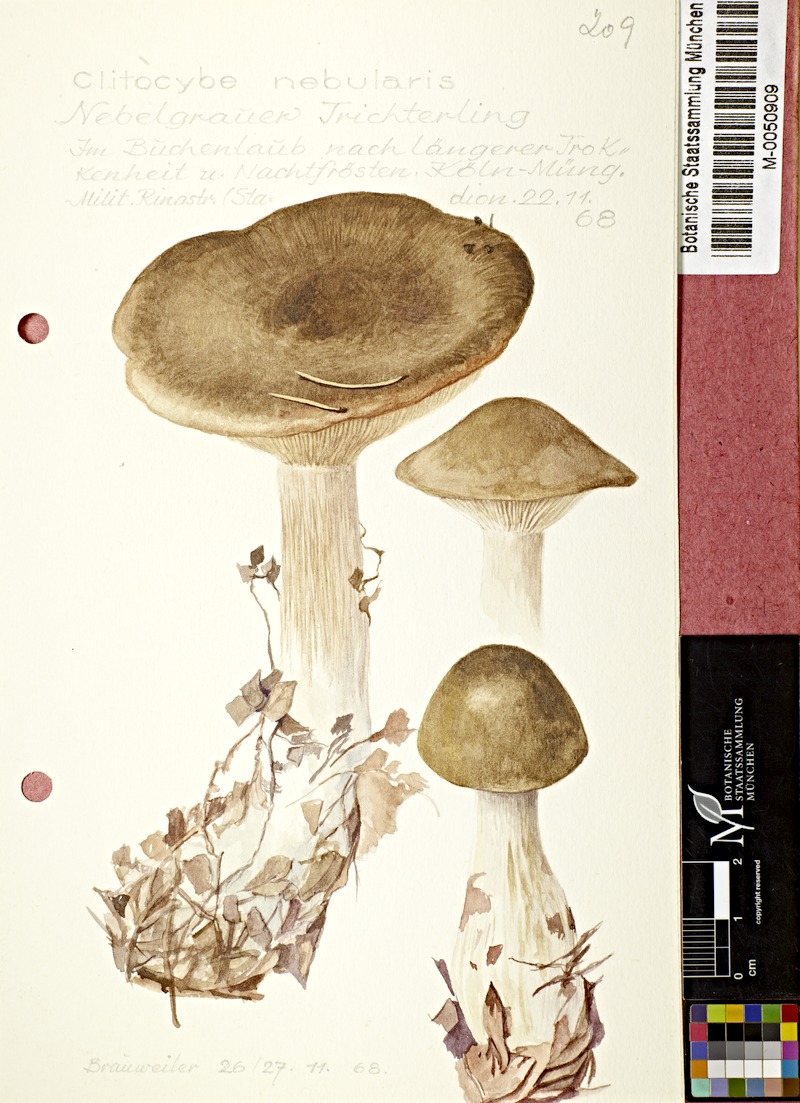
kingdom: Fungi
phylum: Basidiomycota
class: Agaricomycetes
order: Agaricales
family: Tricholomataceae
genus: Clitocybe
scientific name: Clitocybe nebularis
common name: Clouded agaric
